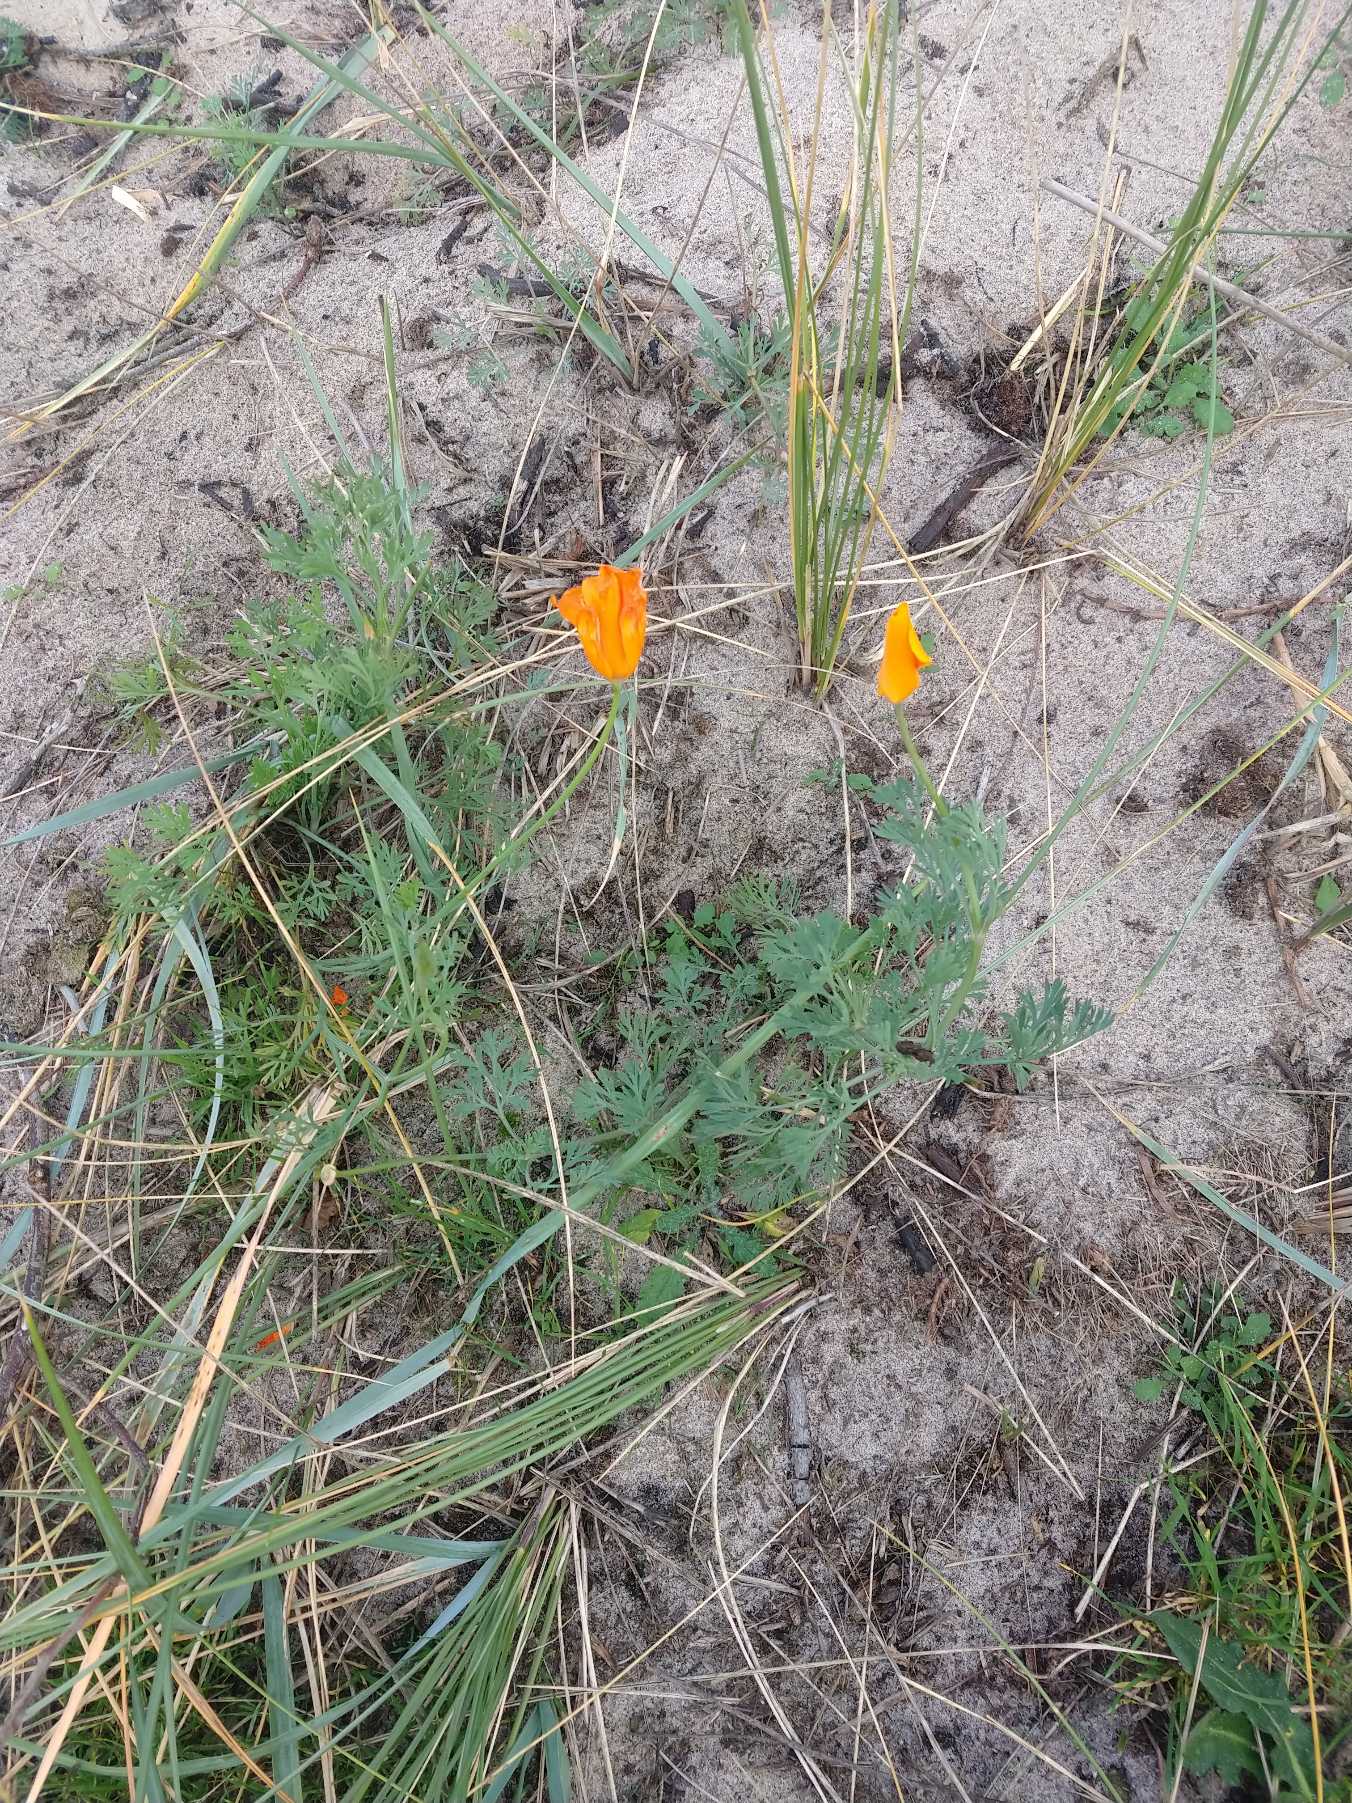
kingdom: Plantae
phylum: Tracheophyta
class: Magnoliopsida
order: Ranunculales
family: Papaveraceae
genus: Eschscholzia
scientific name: Eschscholzia californica
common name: Guldvalmue
